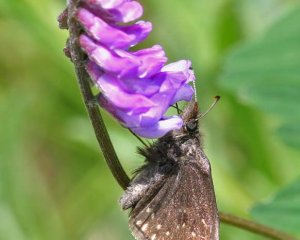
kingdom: Animalia
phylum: Arthropoda
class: Insecta
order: Lepidoptera
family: Hesperiidae
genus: Gesta
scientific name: Gesta
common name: Juvenal's Duskywing
